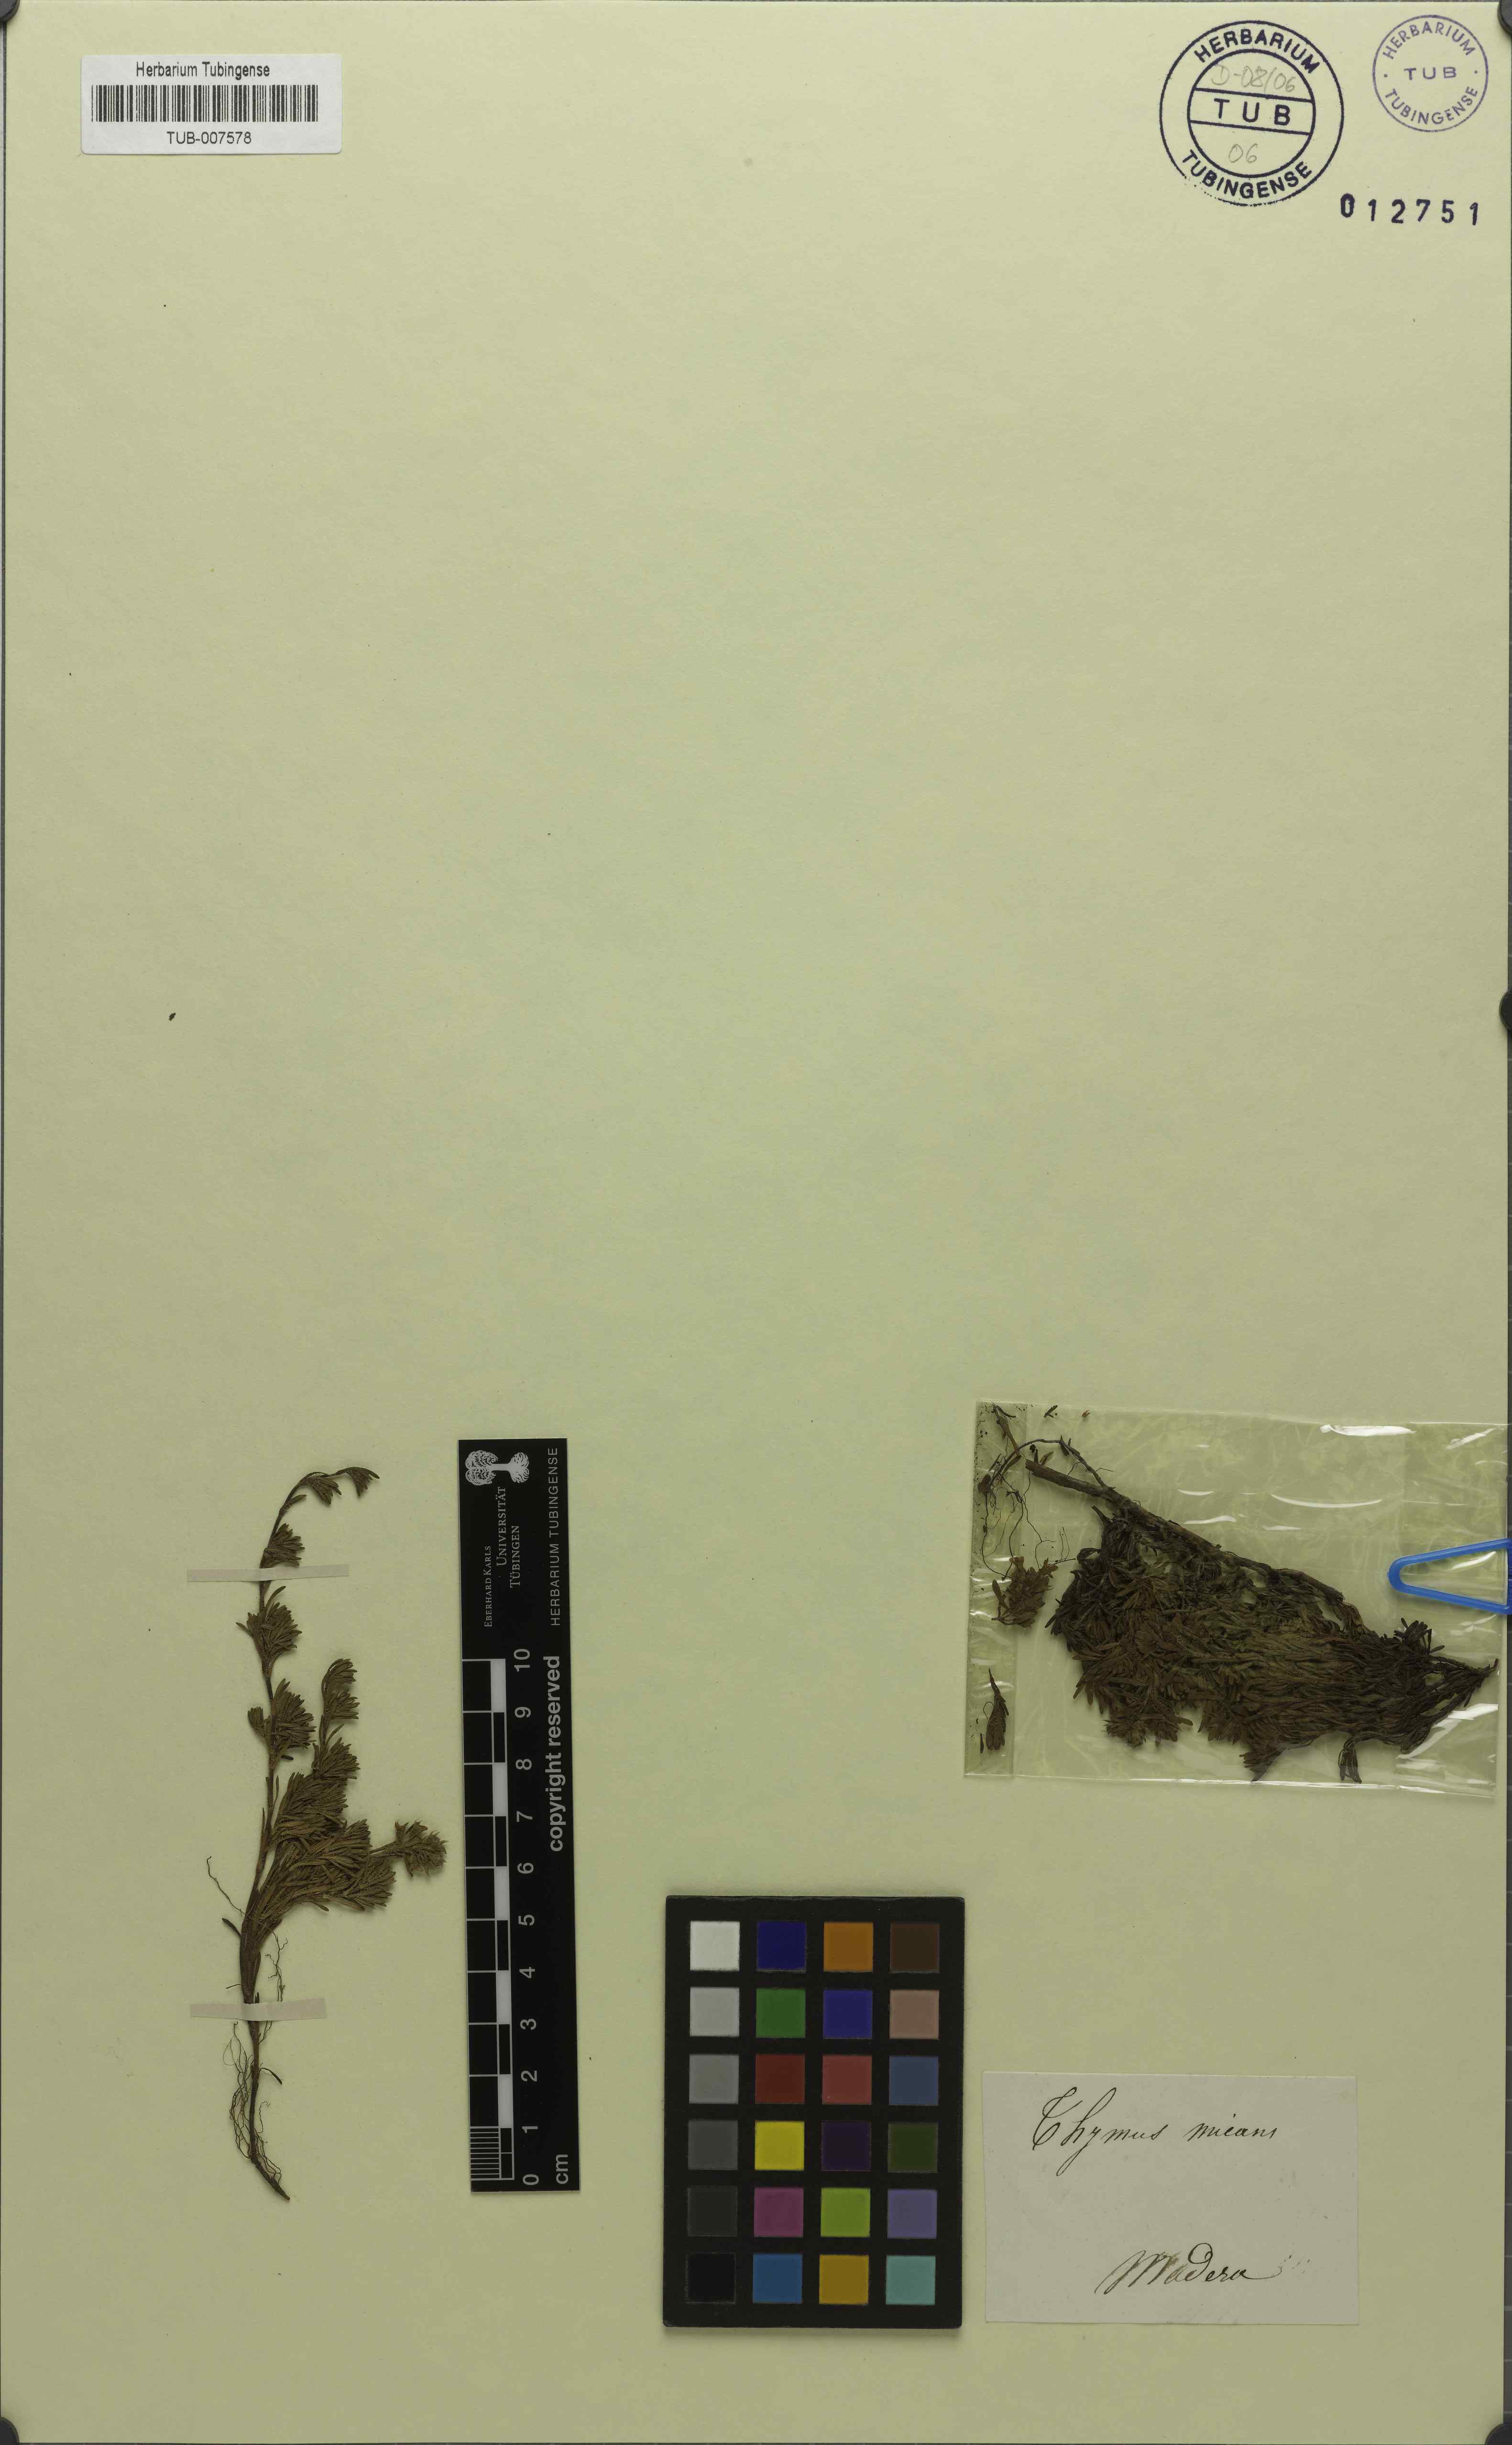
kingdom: Plantae
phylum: Tracheophyta
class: Magnoliopsida
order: Lamiales
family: Lamiaceae
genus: Thymus
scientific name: Thymus caespititius
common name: Azores thyme
